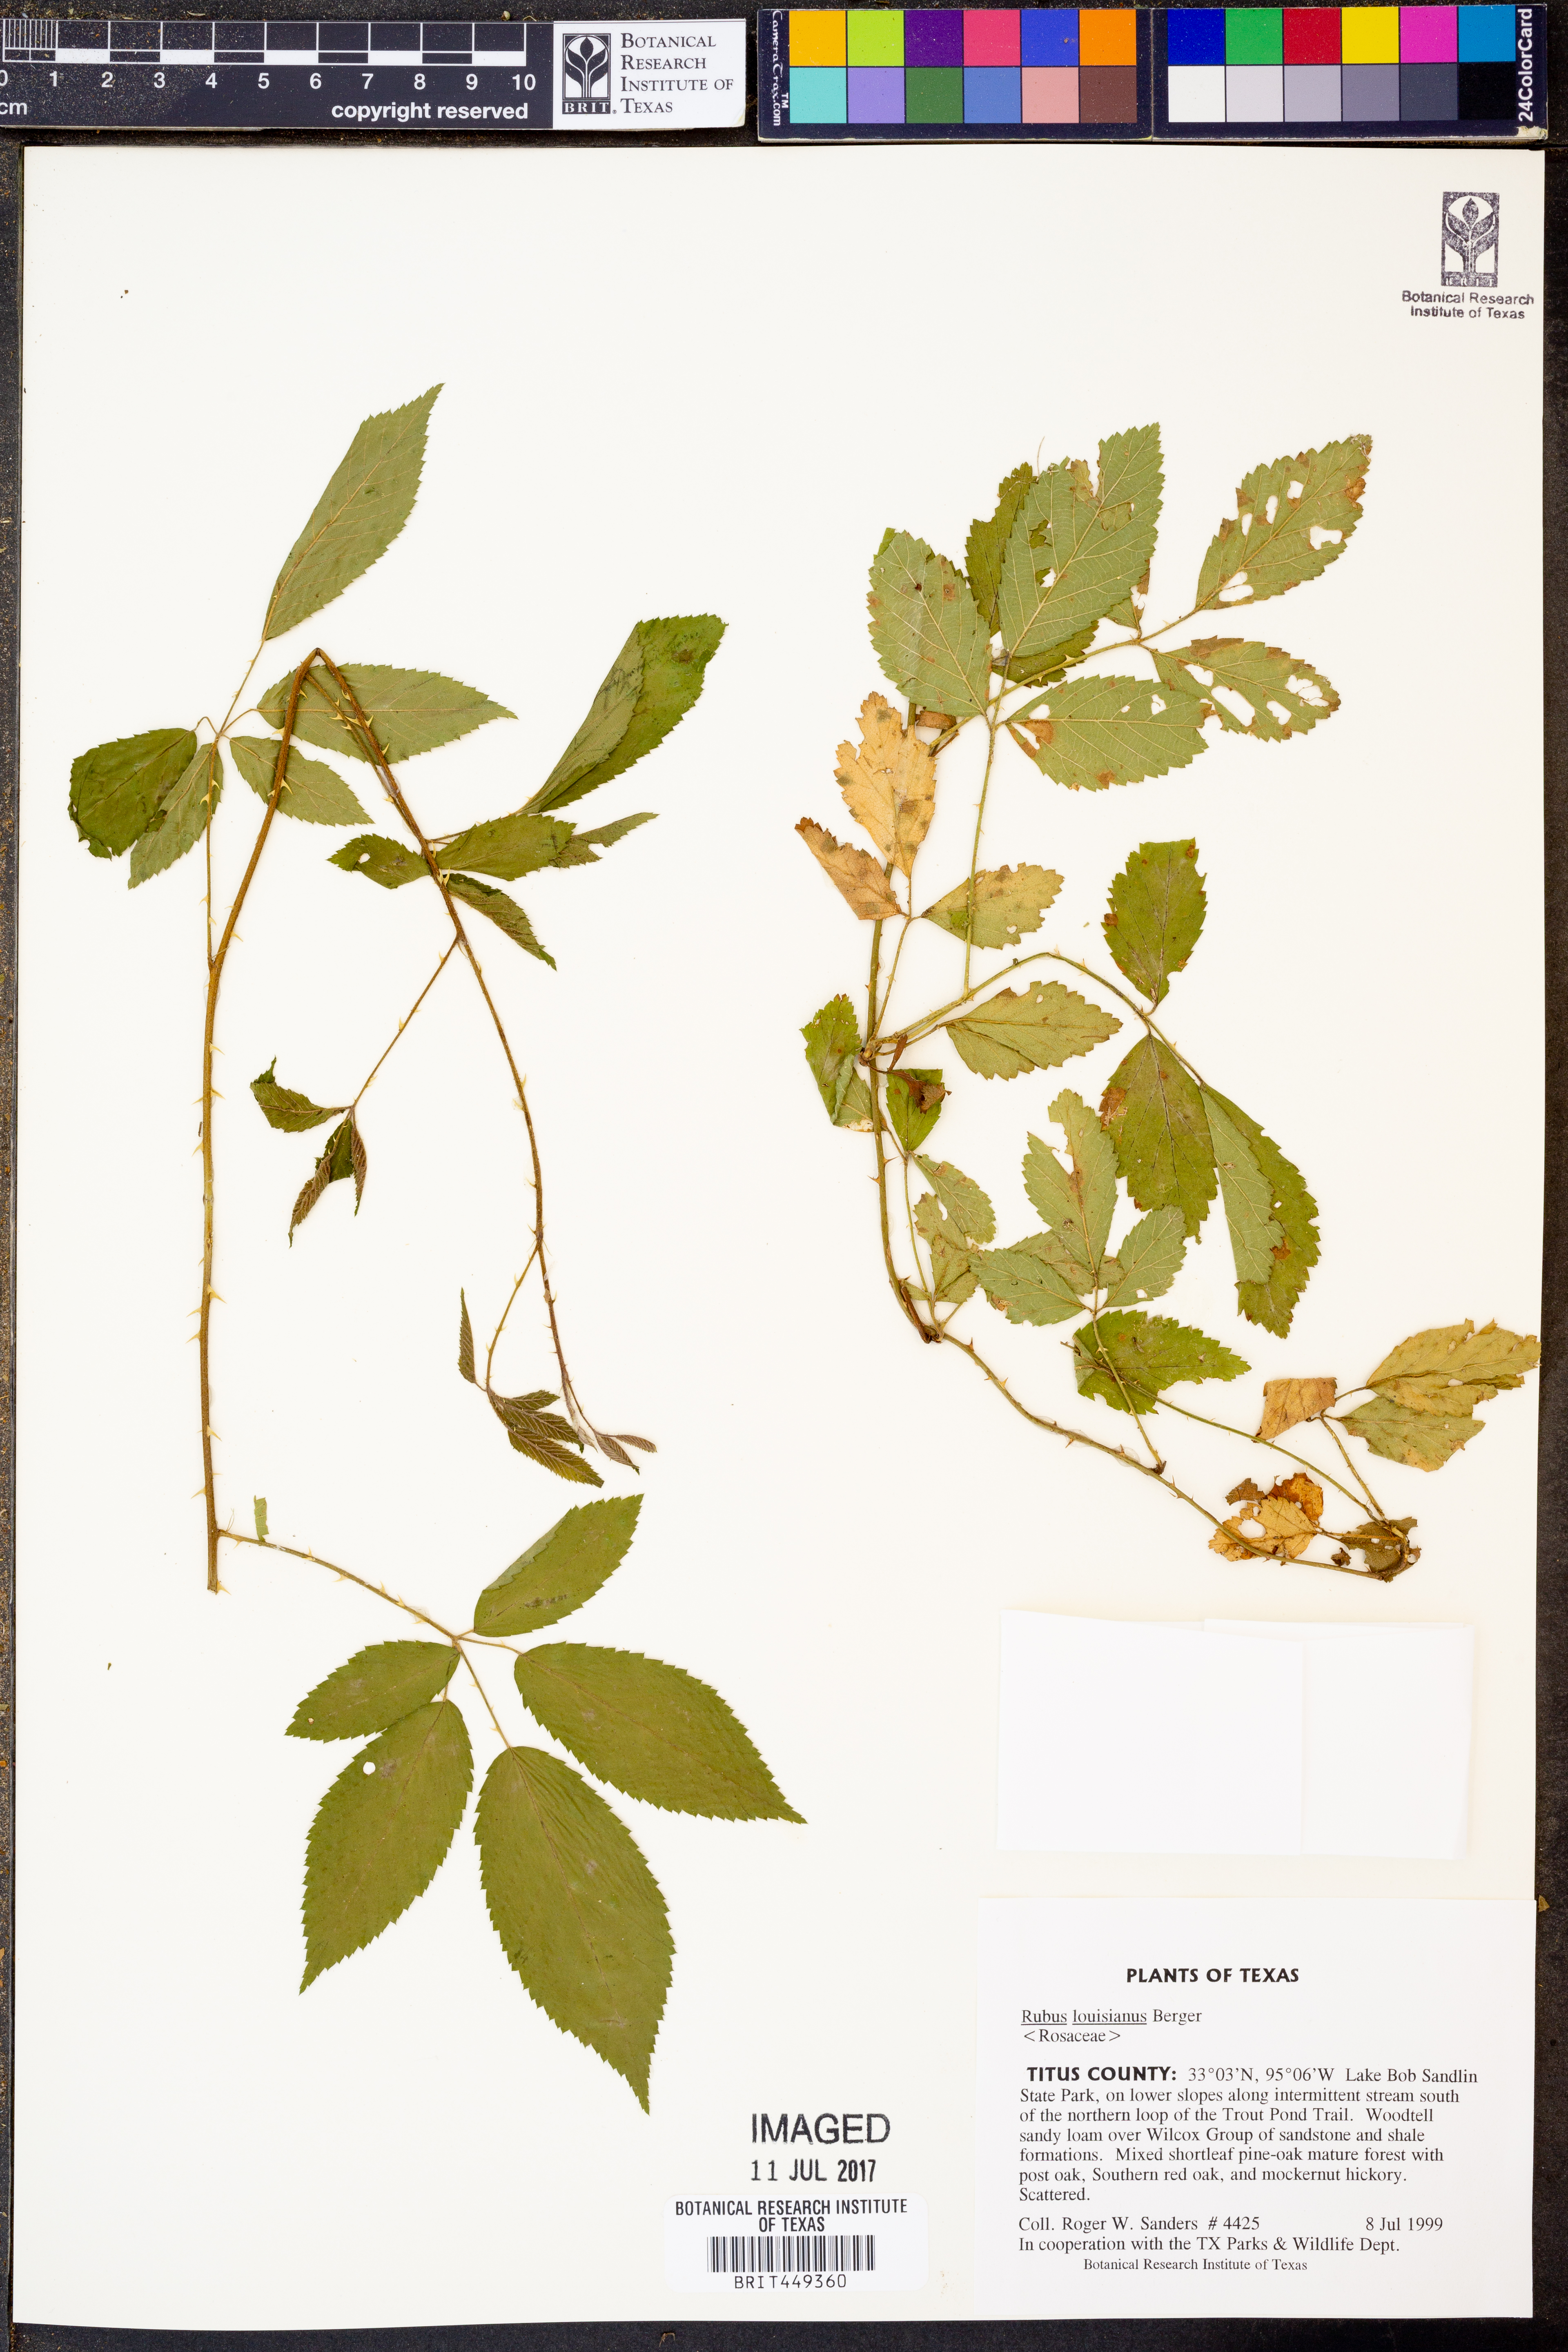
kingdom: Plantae
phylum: Tracheophyta
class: Magnoliopsida
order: Rosales
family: Rosaceae
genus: Rubus
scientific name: Rubus argutus
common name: Sawtooth blackberry
